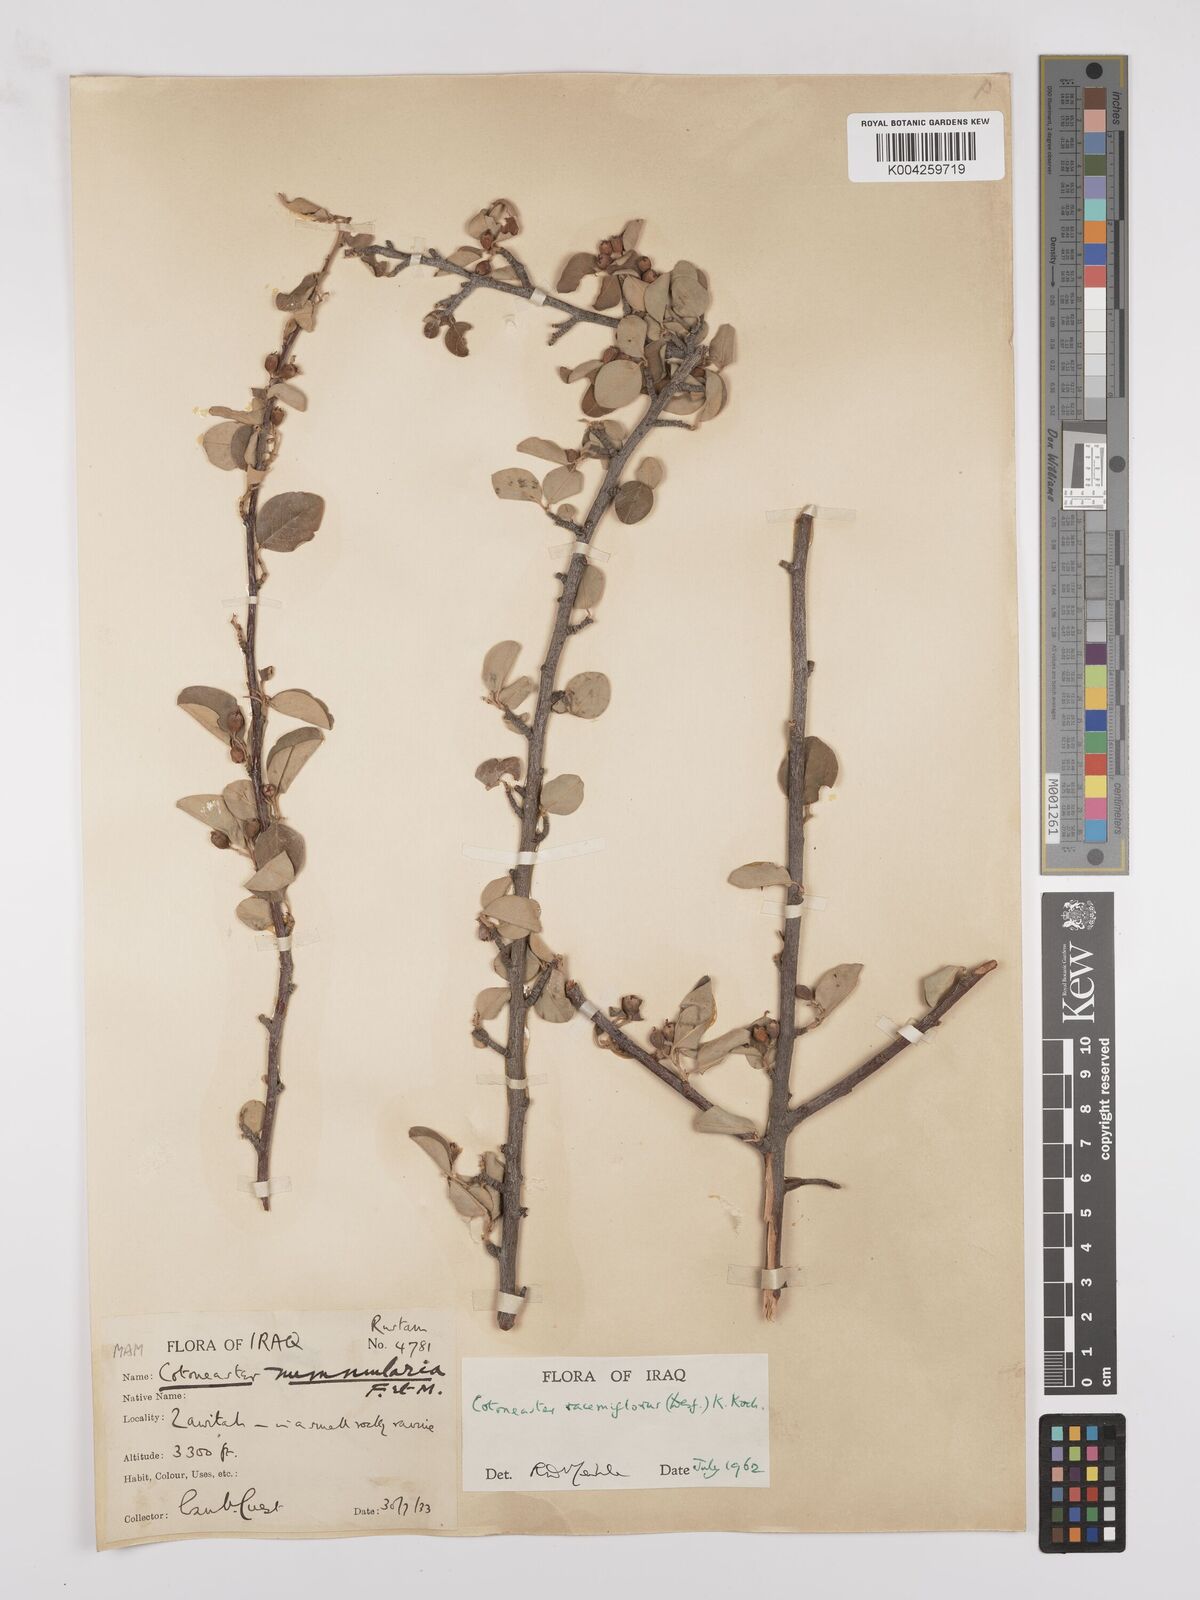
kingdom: Plantae
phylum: Tracheophyta
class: Magnoliopsida
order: Rosales
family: Rosaceae
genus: Cotoneaster
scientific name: Cotoneaster racemiflorus
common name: Cluster-flower cotoneaster
